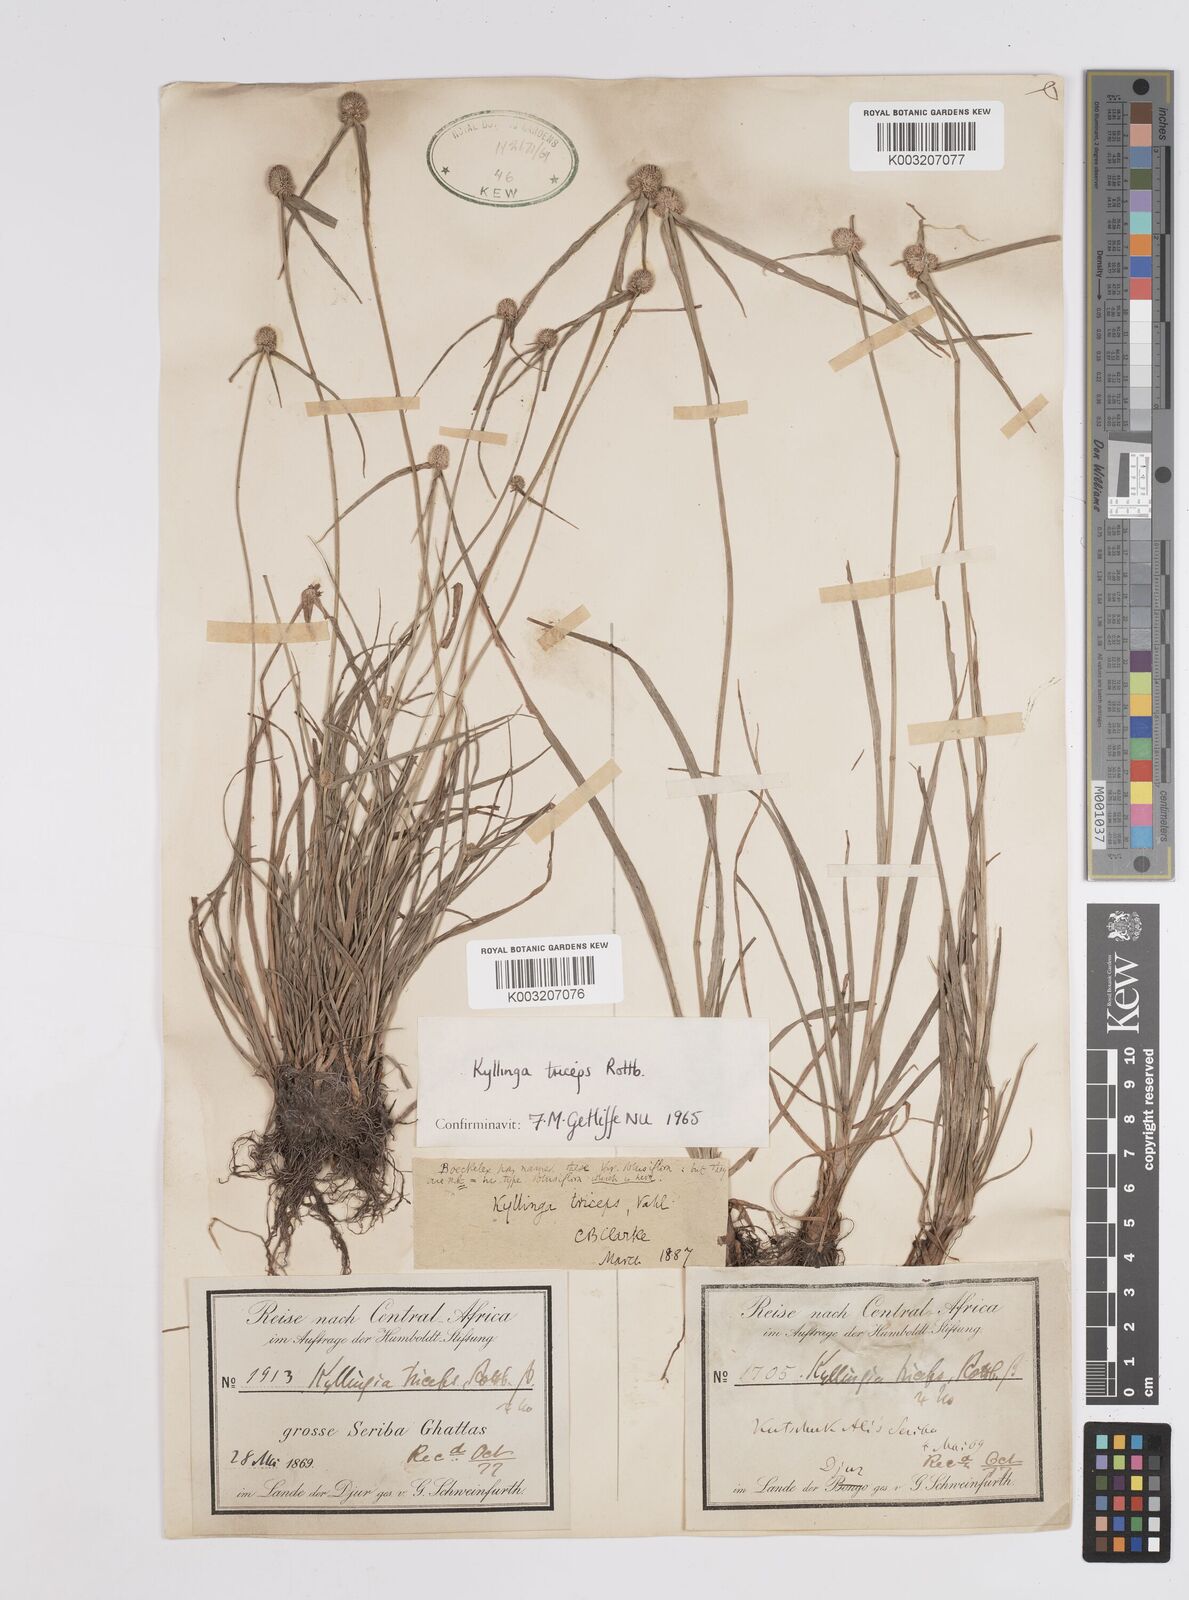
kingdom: Plantae
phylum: Tracheophyta
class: Liliopsida
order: Poales
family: Cyperaceae
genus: Cyperus
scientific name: Cyperus
